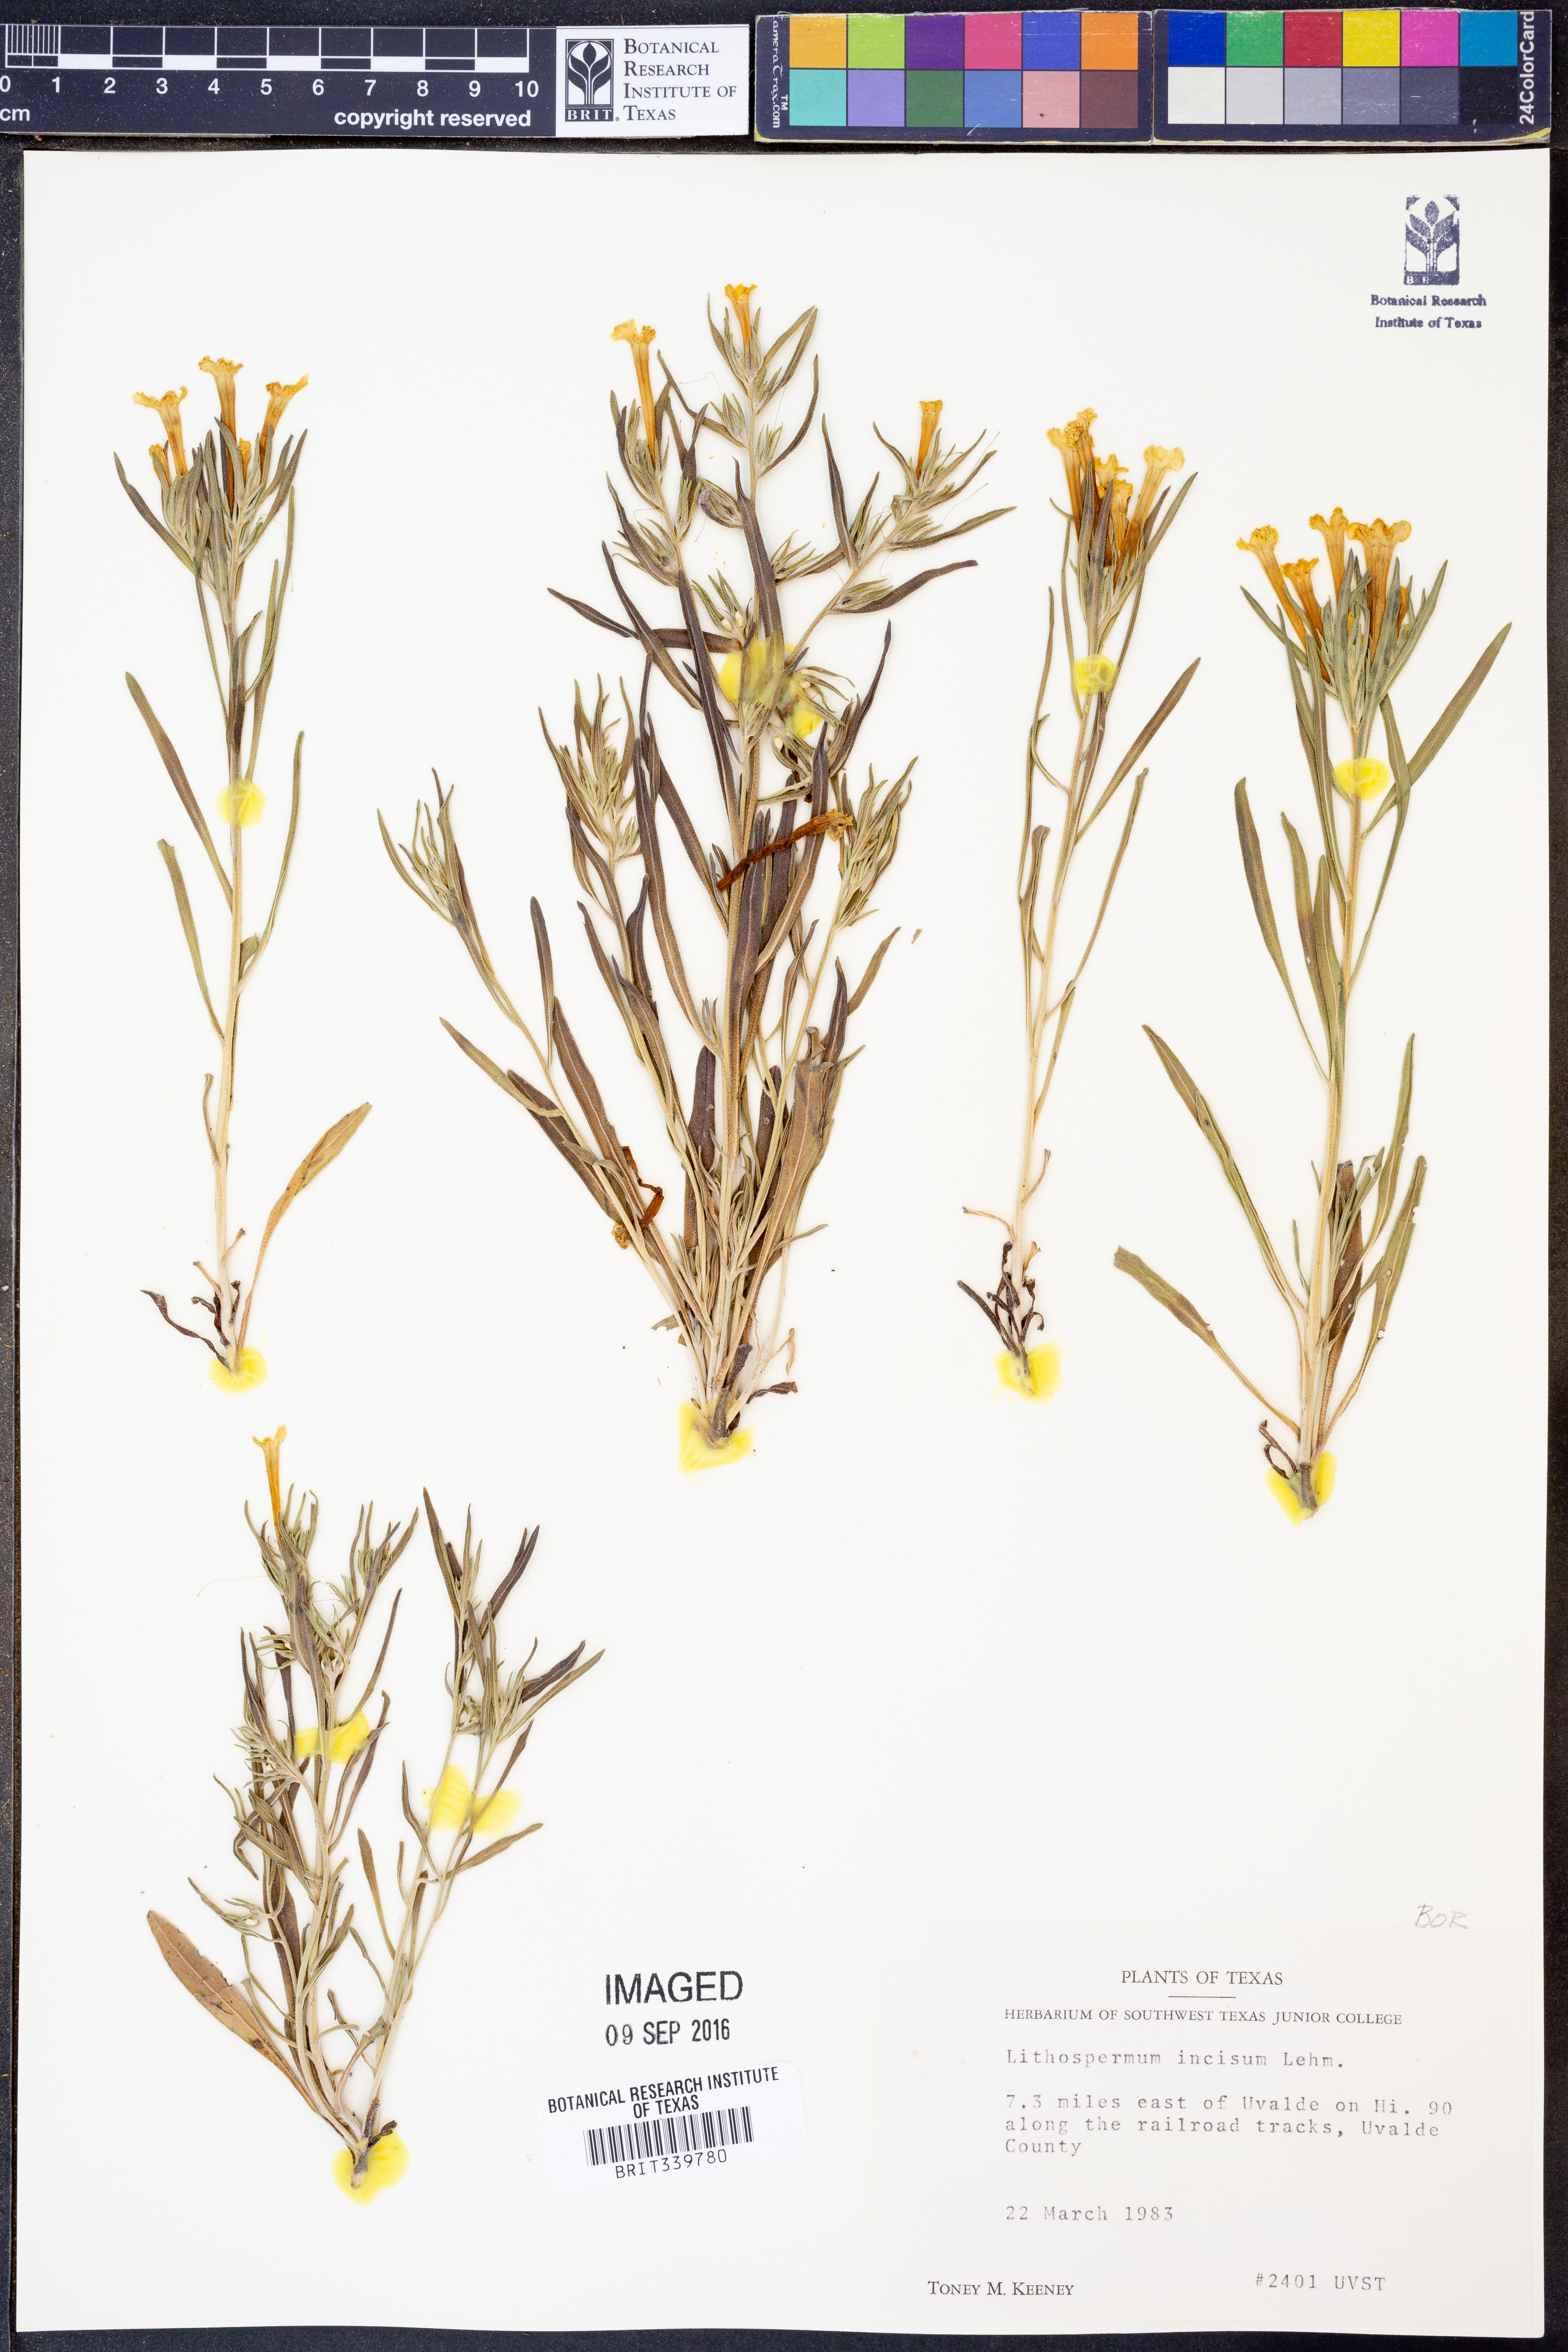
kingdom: Plantae
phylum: Tracheophyta
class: Magnoliopsida
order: Boraginales
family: Boraginaceae
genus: Lithospermum
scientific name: Lithospermum incisum
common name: Fringed gromwell
